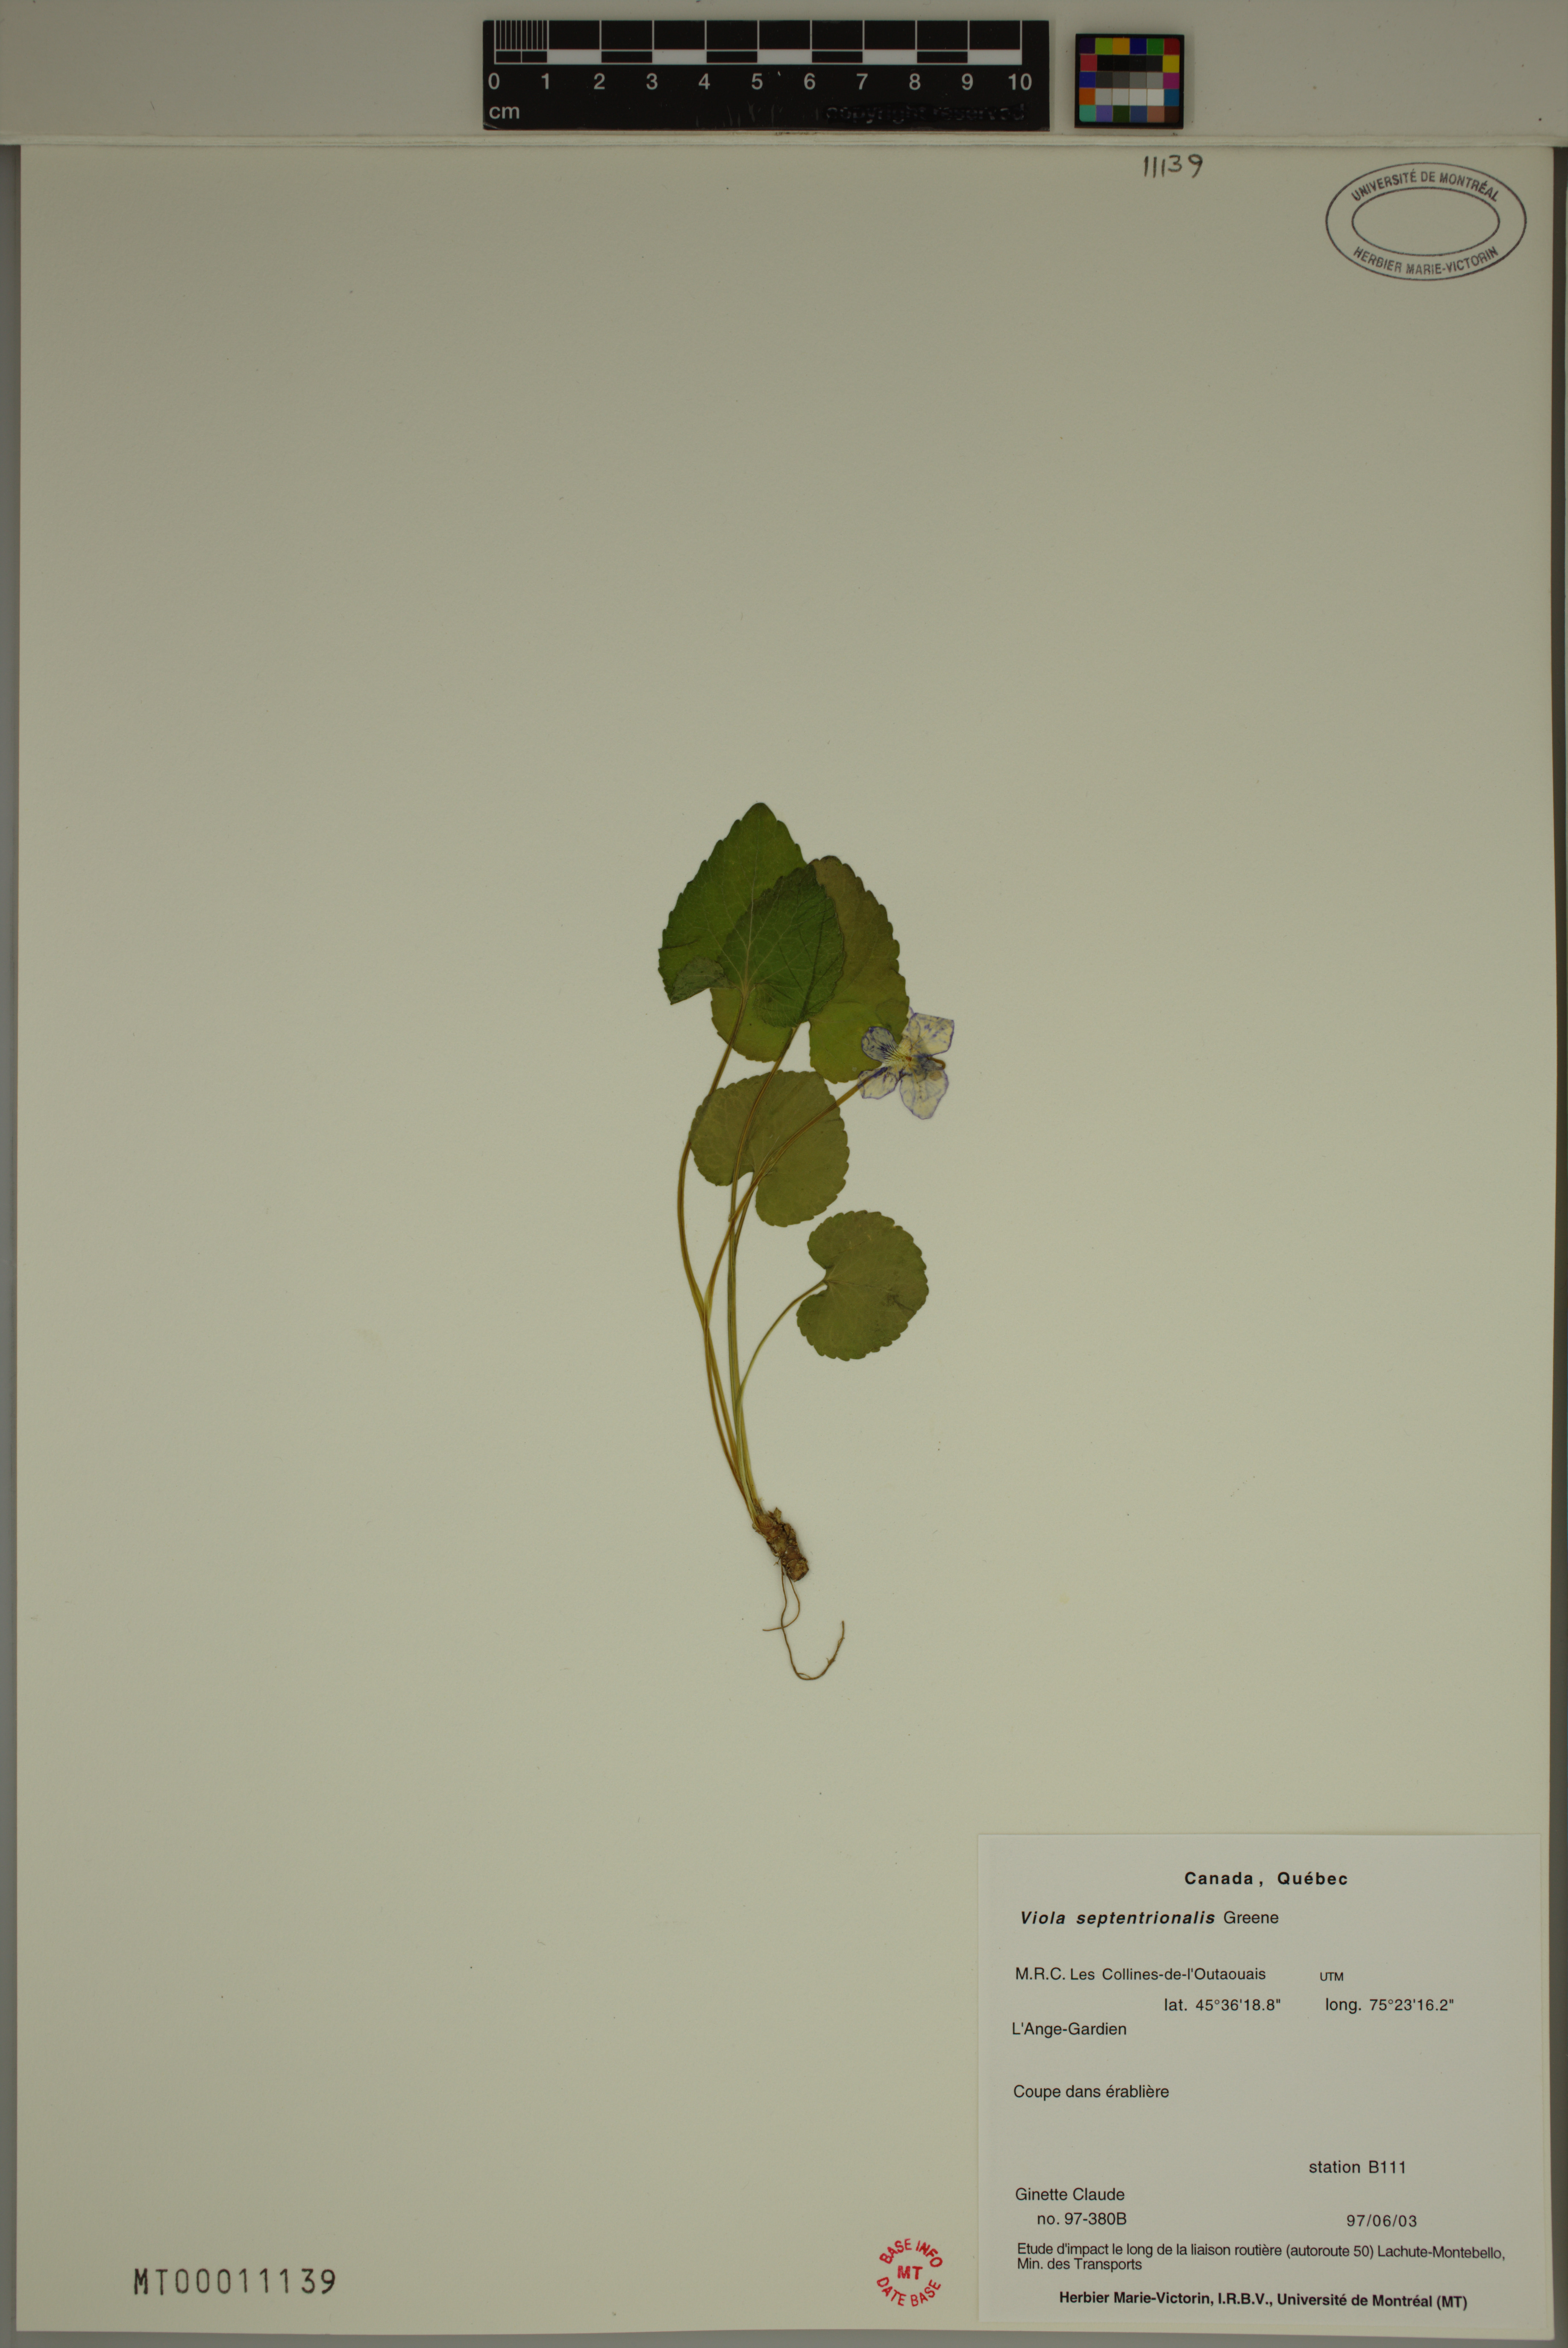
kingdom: Plantae
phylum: Tracheophyta
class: Magnoliopsida
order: Malpighiales
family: Violaceae
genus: Viola
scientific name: Viola sororia
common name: Dooryard violet
